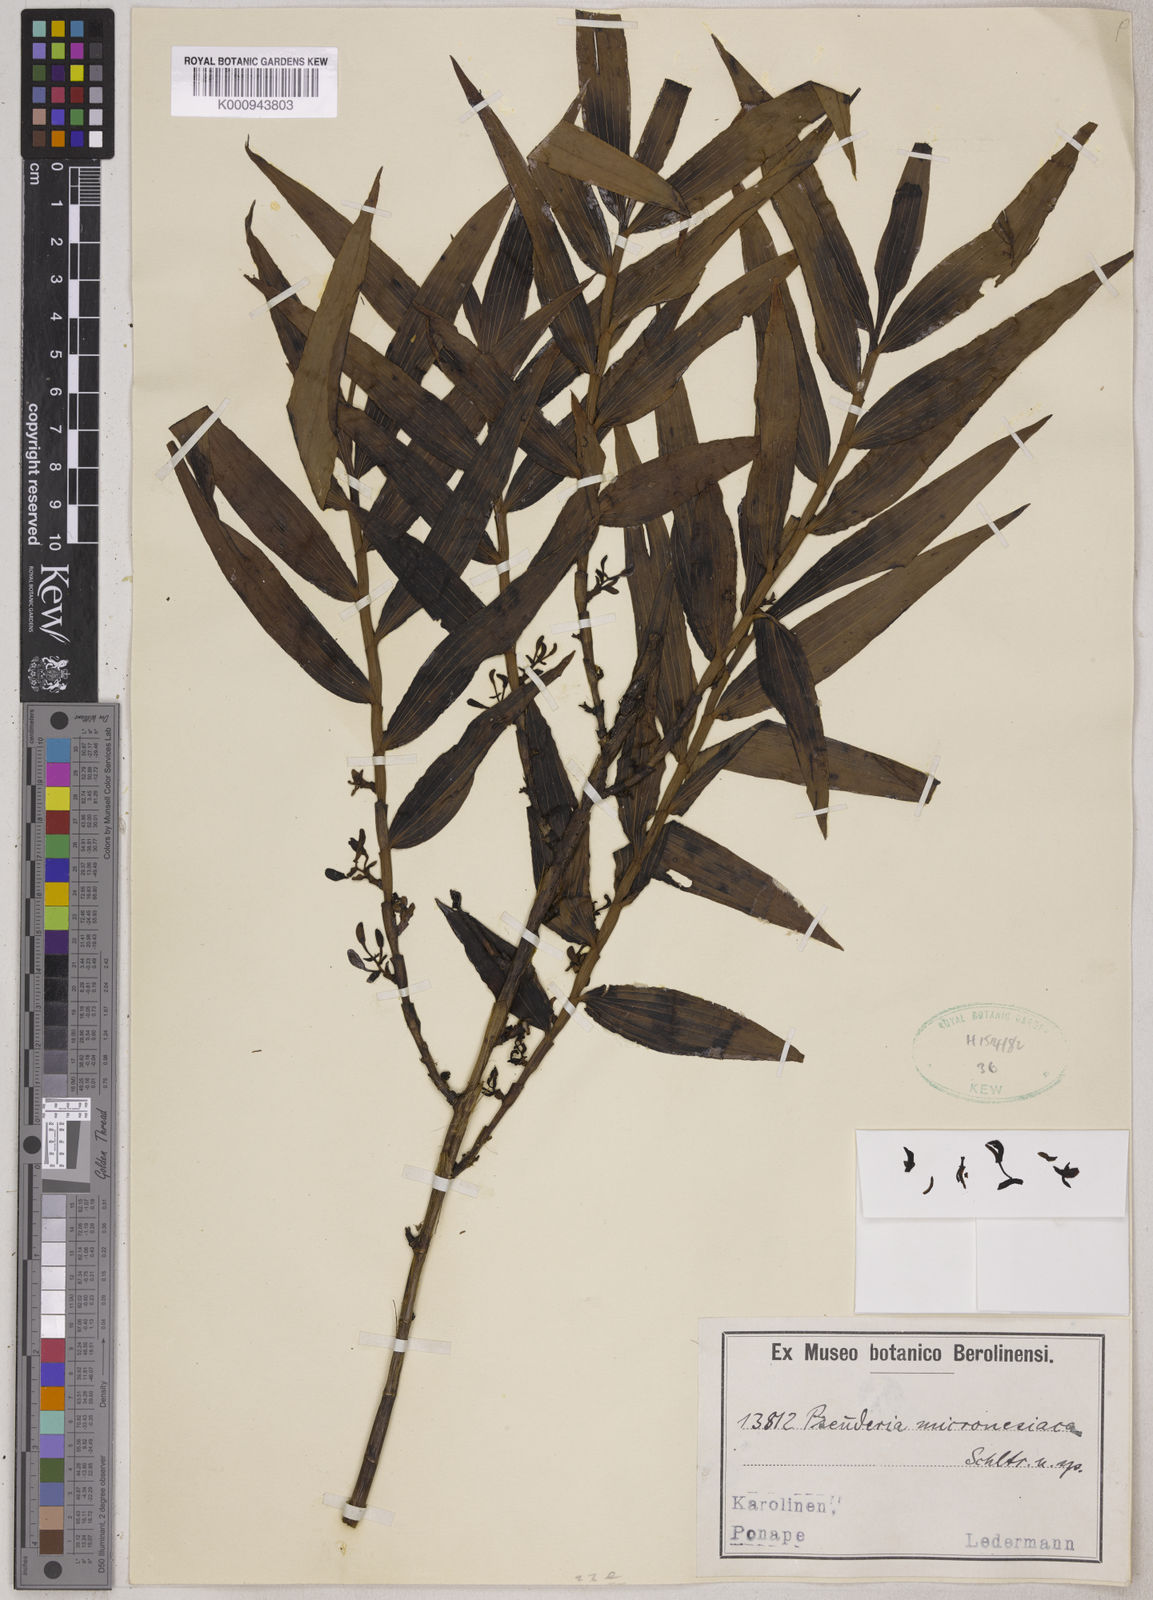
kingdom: Plantae
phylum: Tracheophyta
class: Liliopsida
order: Asparagales
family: Orchidaceae
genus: Pseuderia
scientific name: Pseuderia micronesiaca
